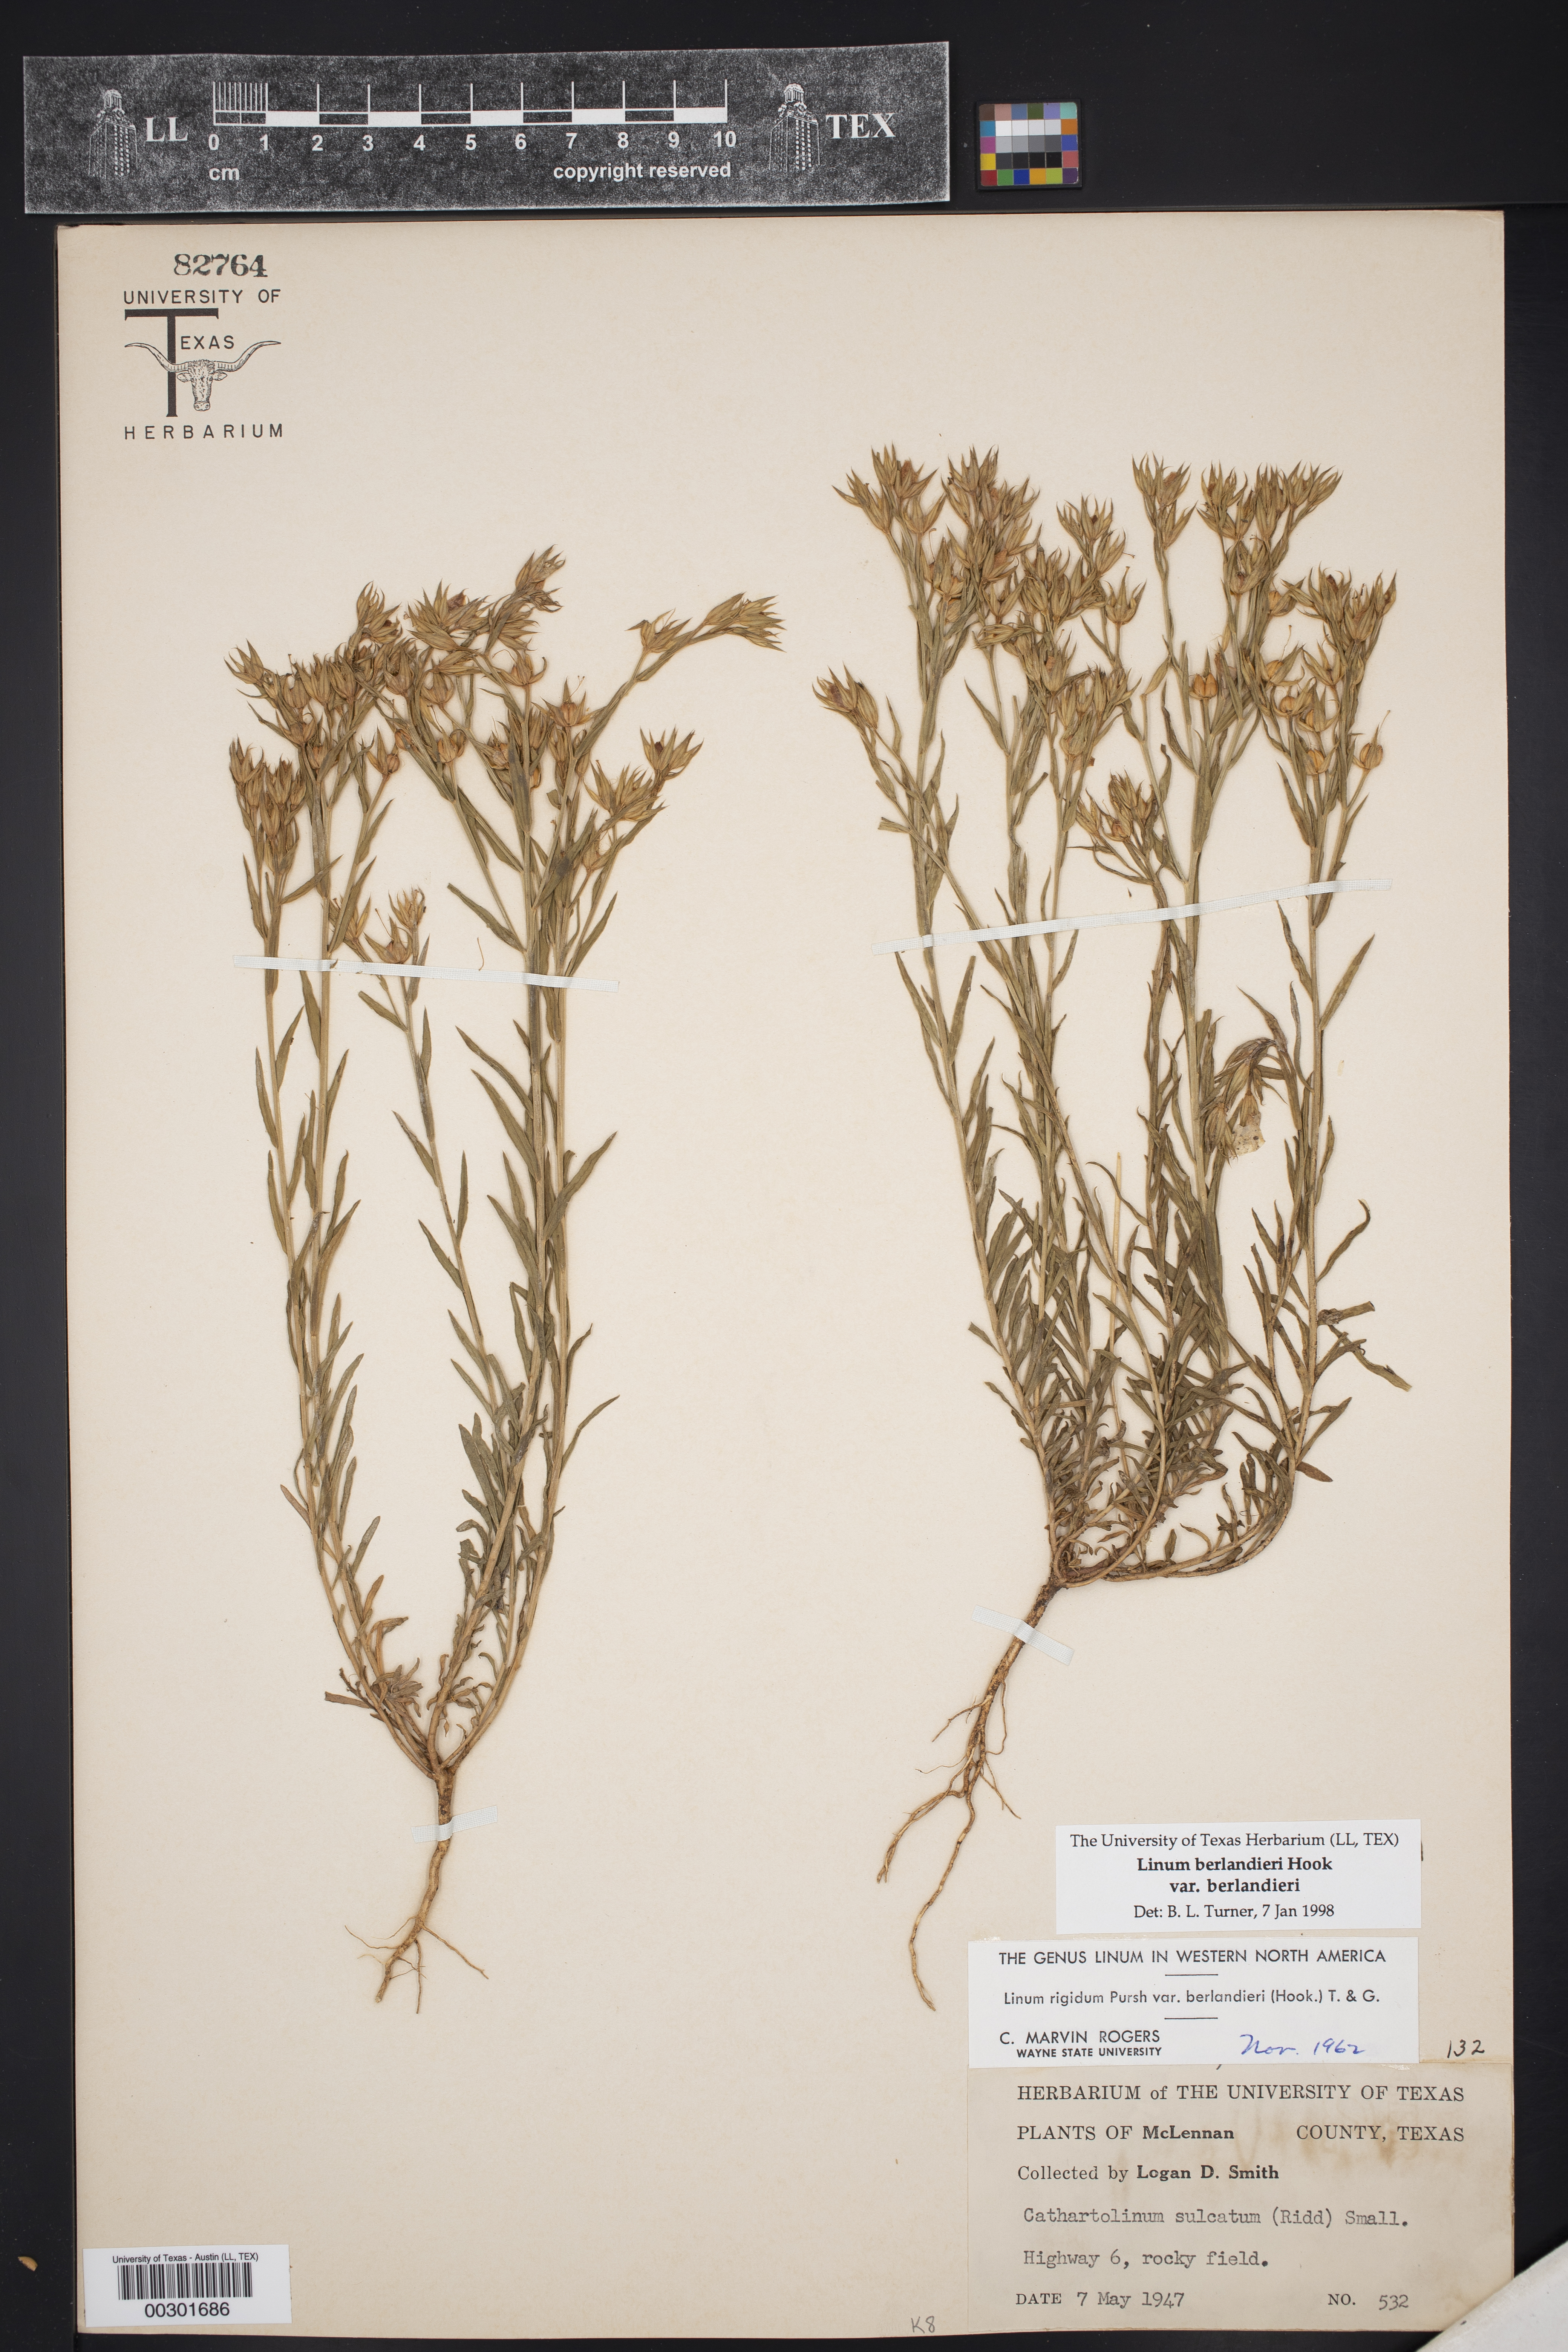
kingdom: Plantae
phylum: Tracheophyta
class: Magnoliopsida
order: Malpighiales
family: Linaceae
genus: Linum
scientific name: Linum berlandieri
